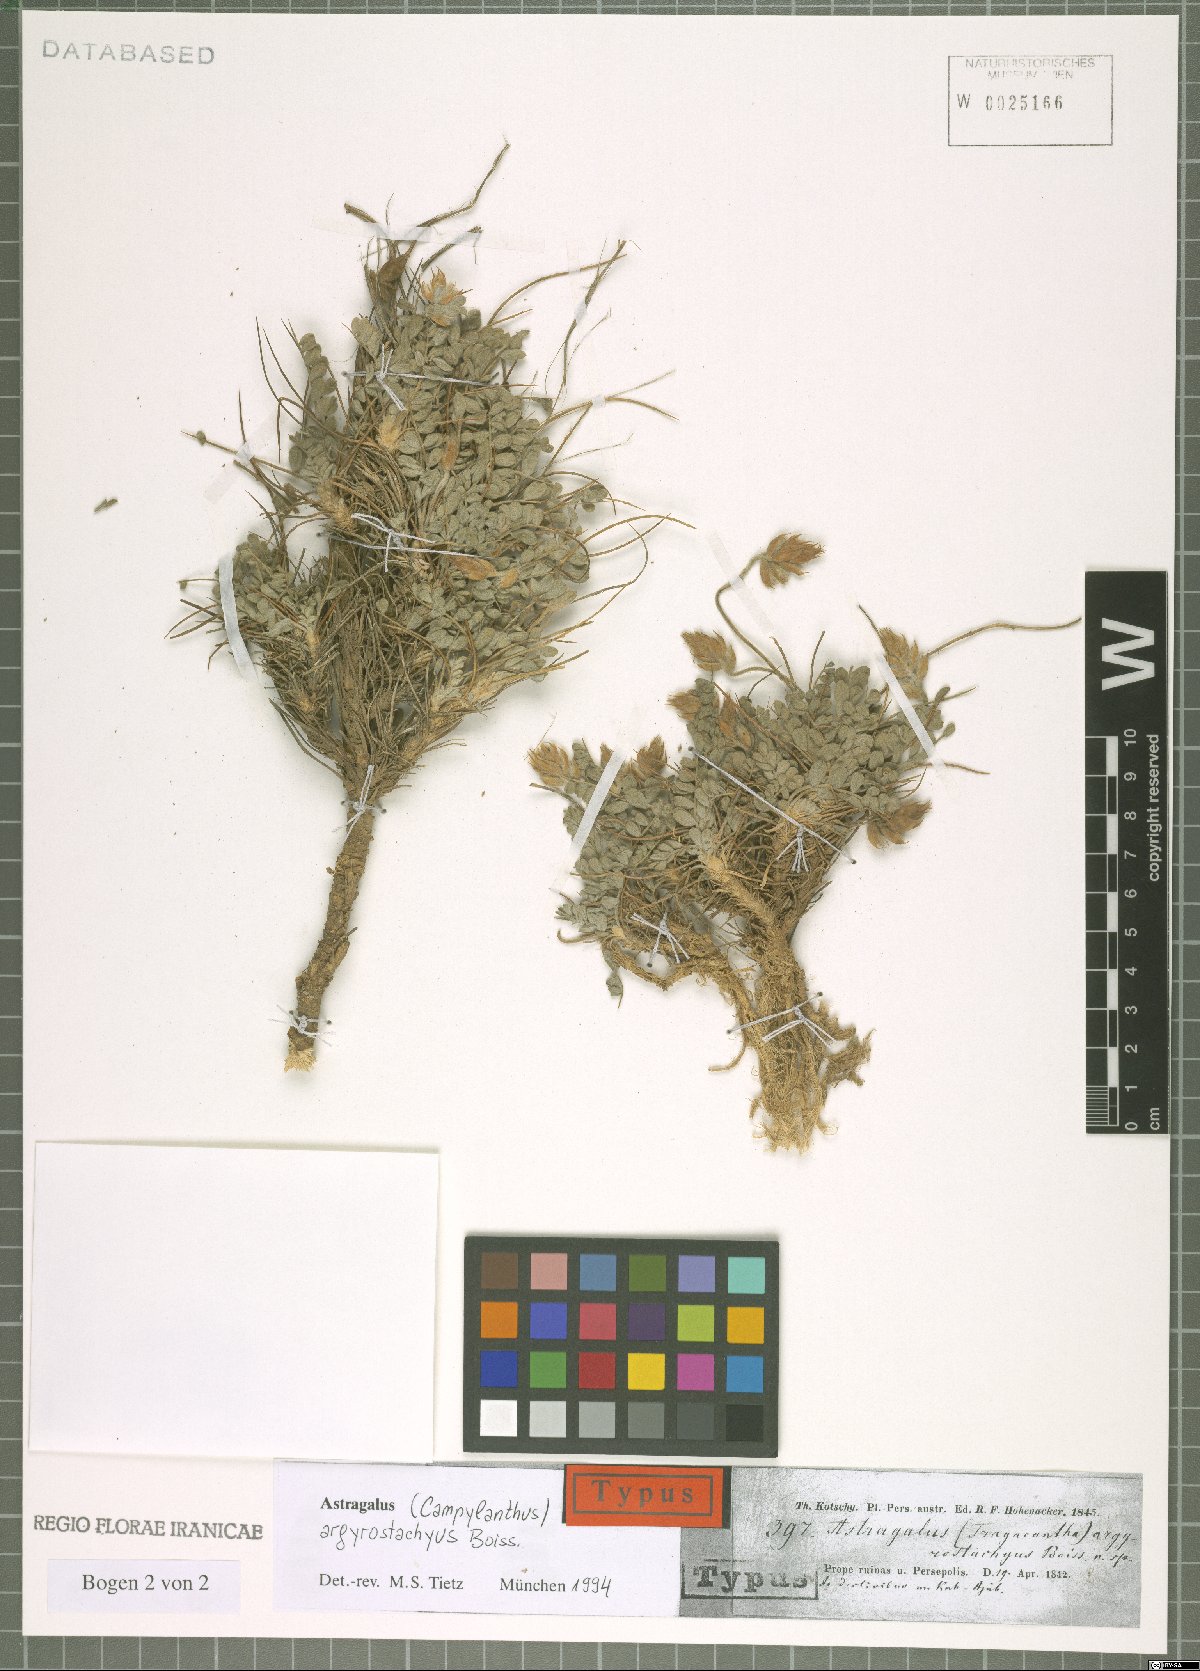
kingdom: Plantae
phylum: Tracheophyta
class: Magnoliopsida
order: Fabales
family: Fabaceae
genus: Astragalus
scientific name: Astragalus argyrostachyus
